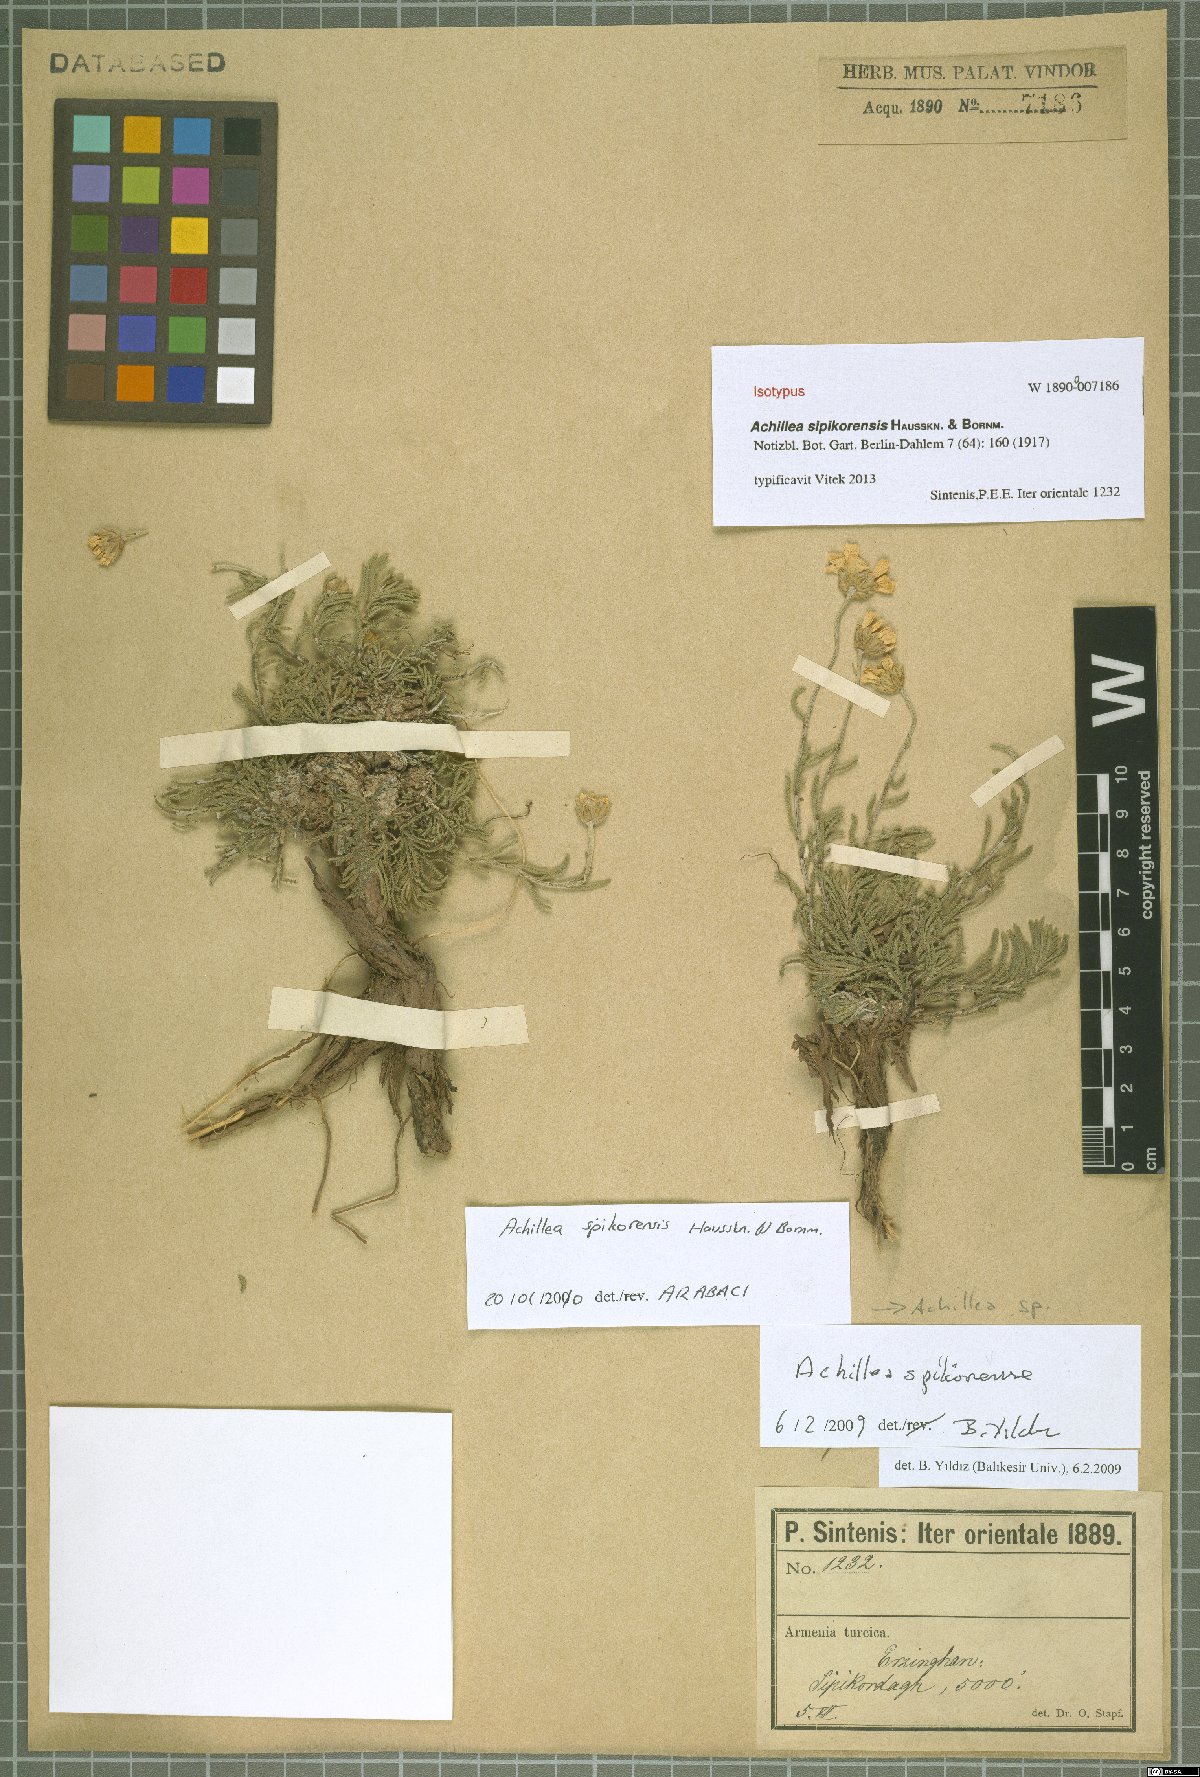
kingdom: Plantae
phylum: Tracheophyta
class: Magnoliopsida
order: Asterales
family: Asteraceae
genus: Achillea
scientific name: Achillea sipikorensis
